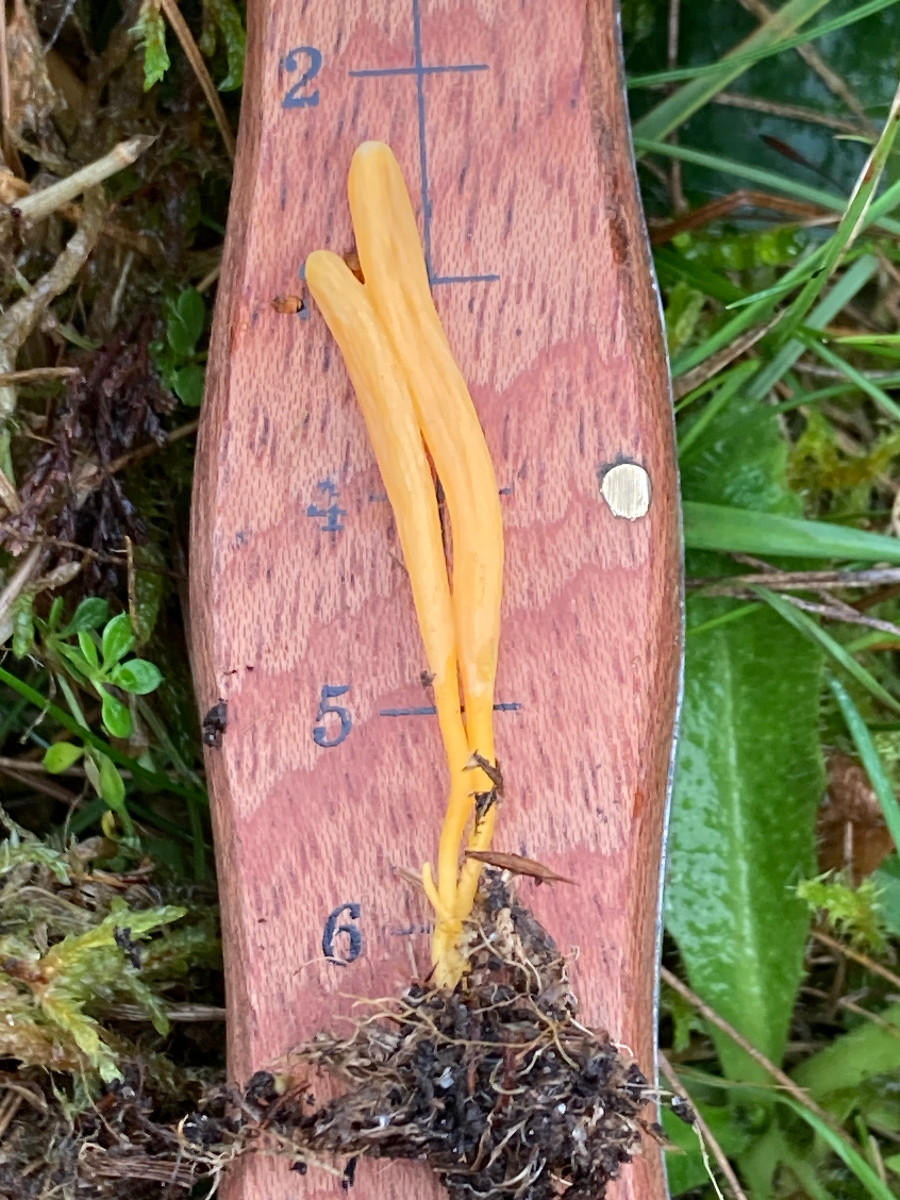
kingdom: Fungi
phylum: Basidiomycota
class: Agaricomycetes
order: Agaricales
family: Clavariaceae
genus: Clavulinopsis
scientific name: Clavulinopsis
